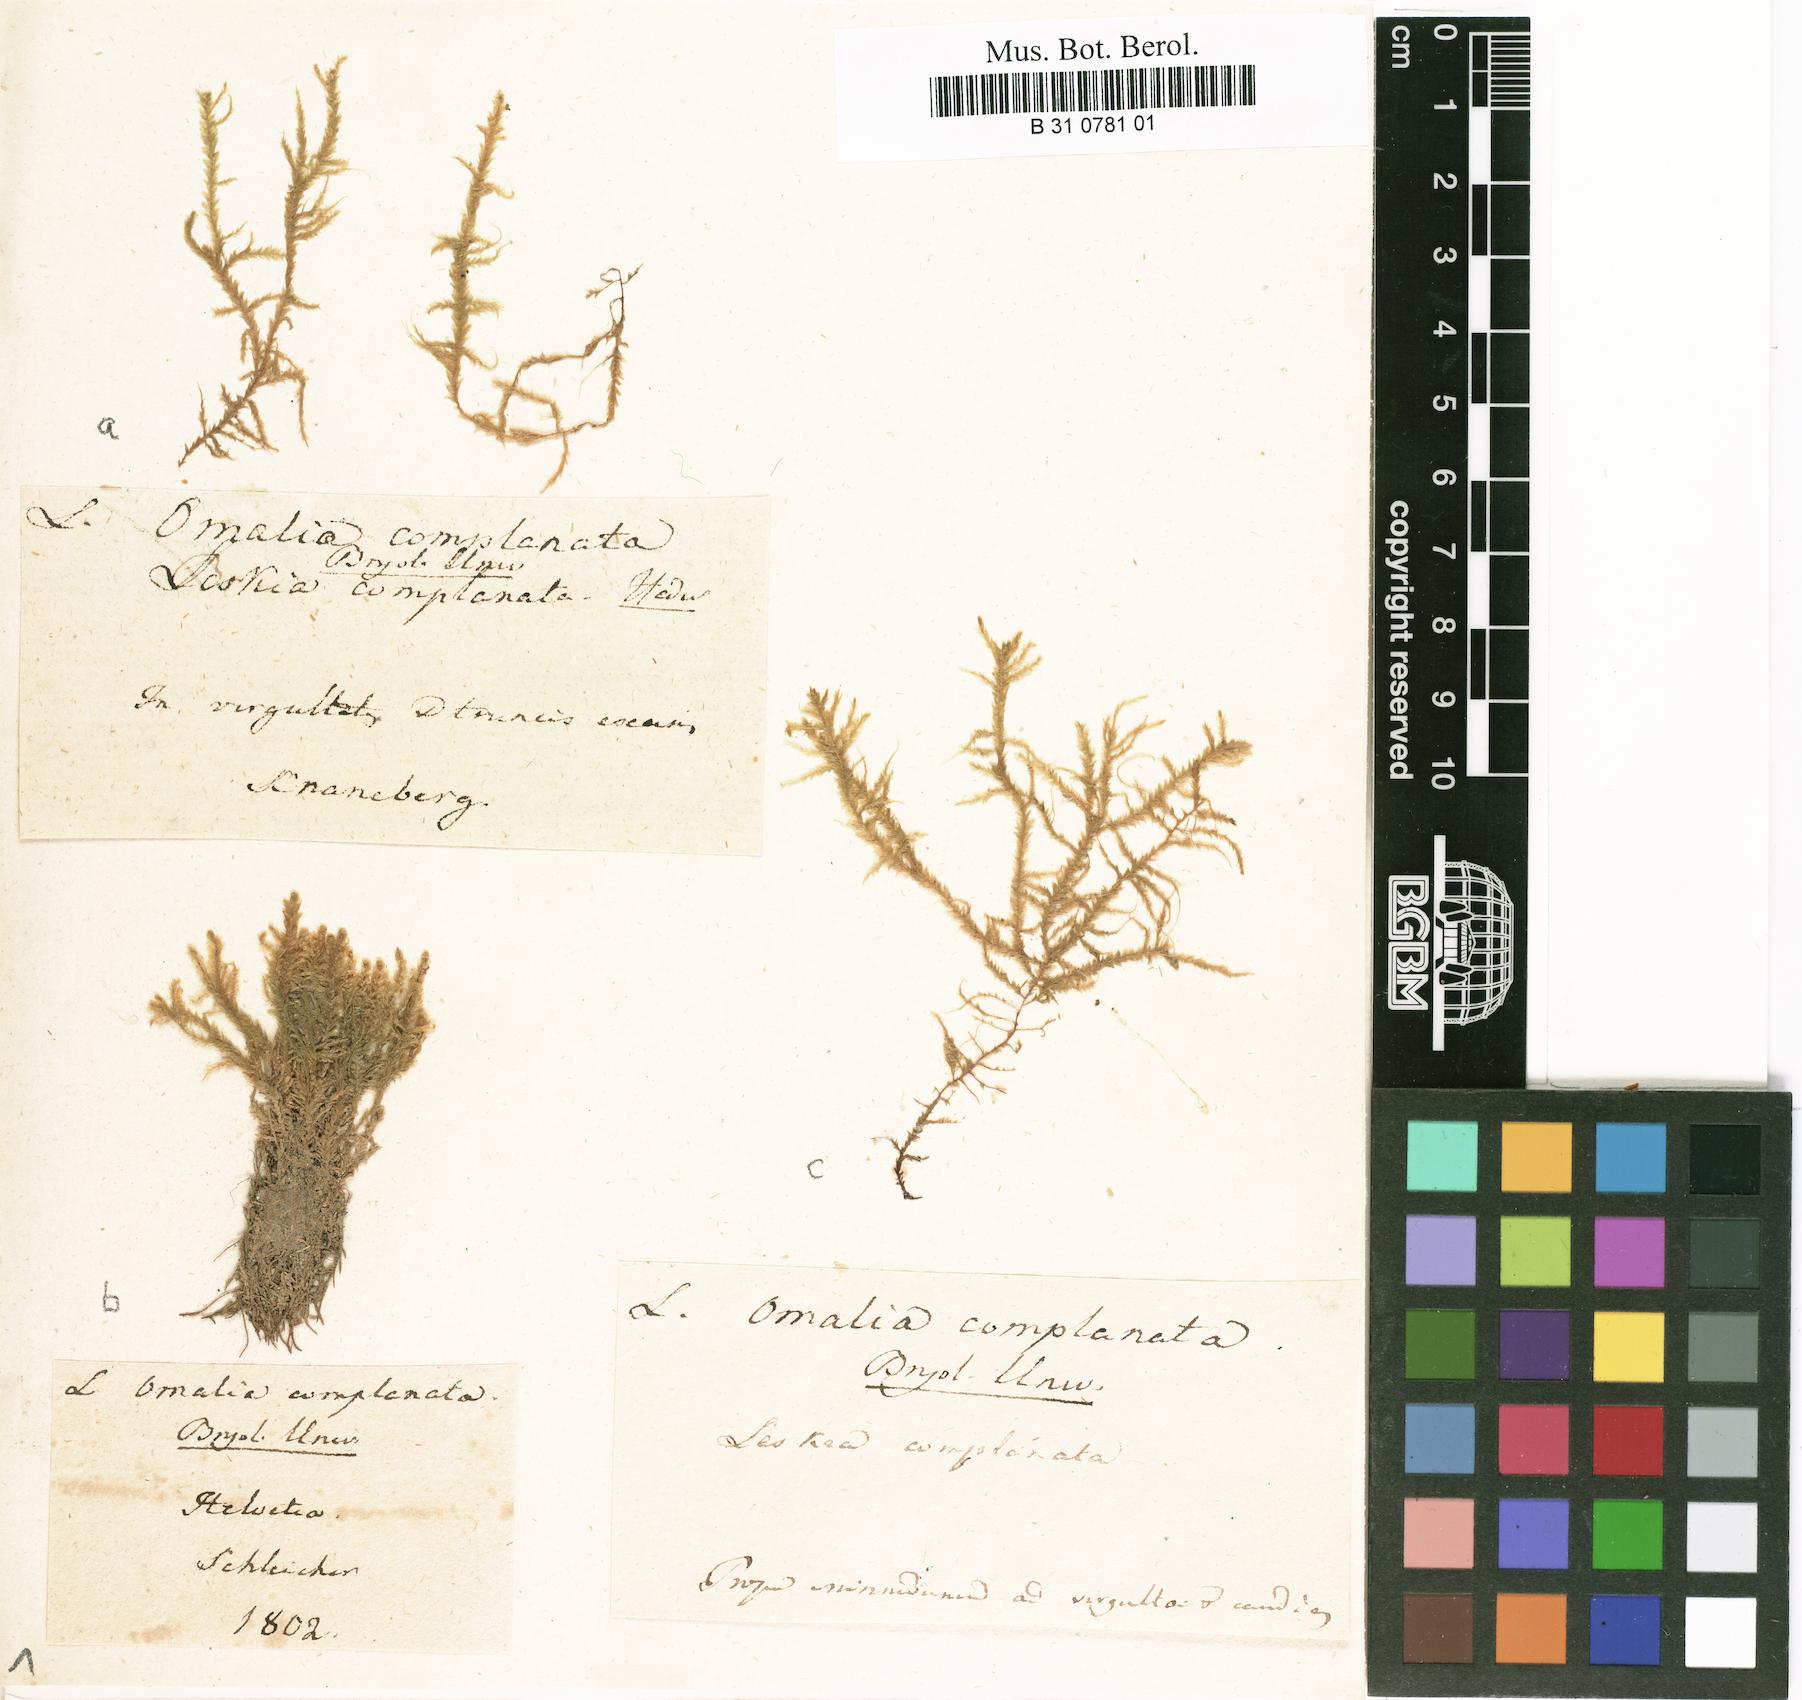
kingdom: Plantae
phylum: Bryophyta
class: Bryopsida
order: Hypnales
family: Neckeraceae
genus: Omalia
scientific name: Omalia
